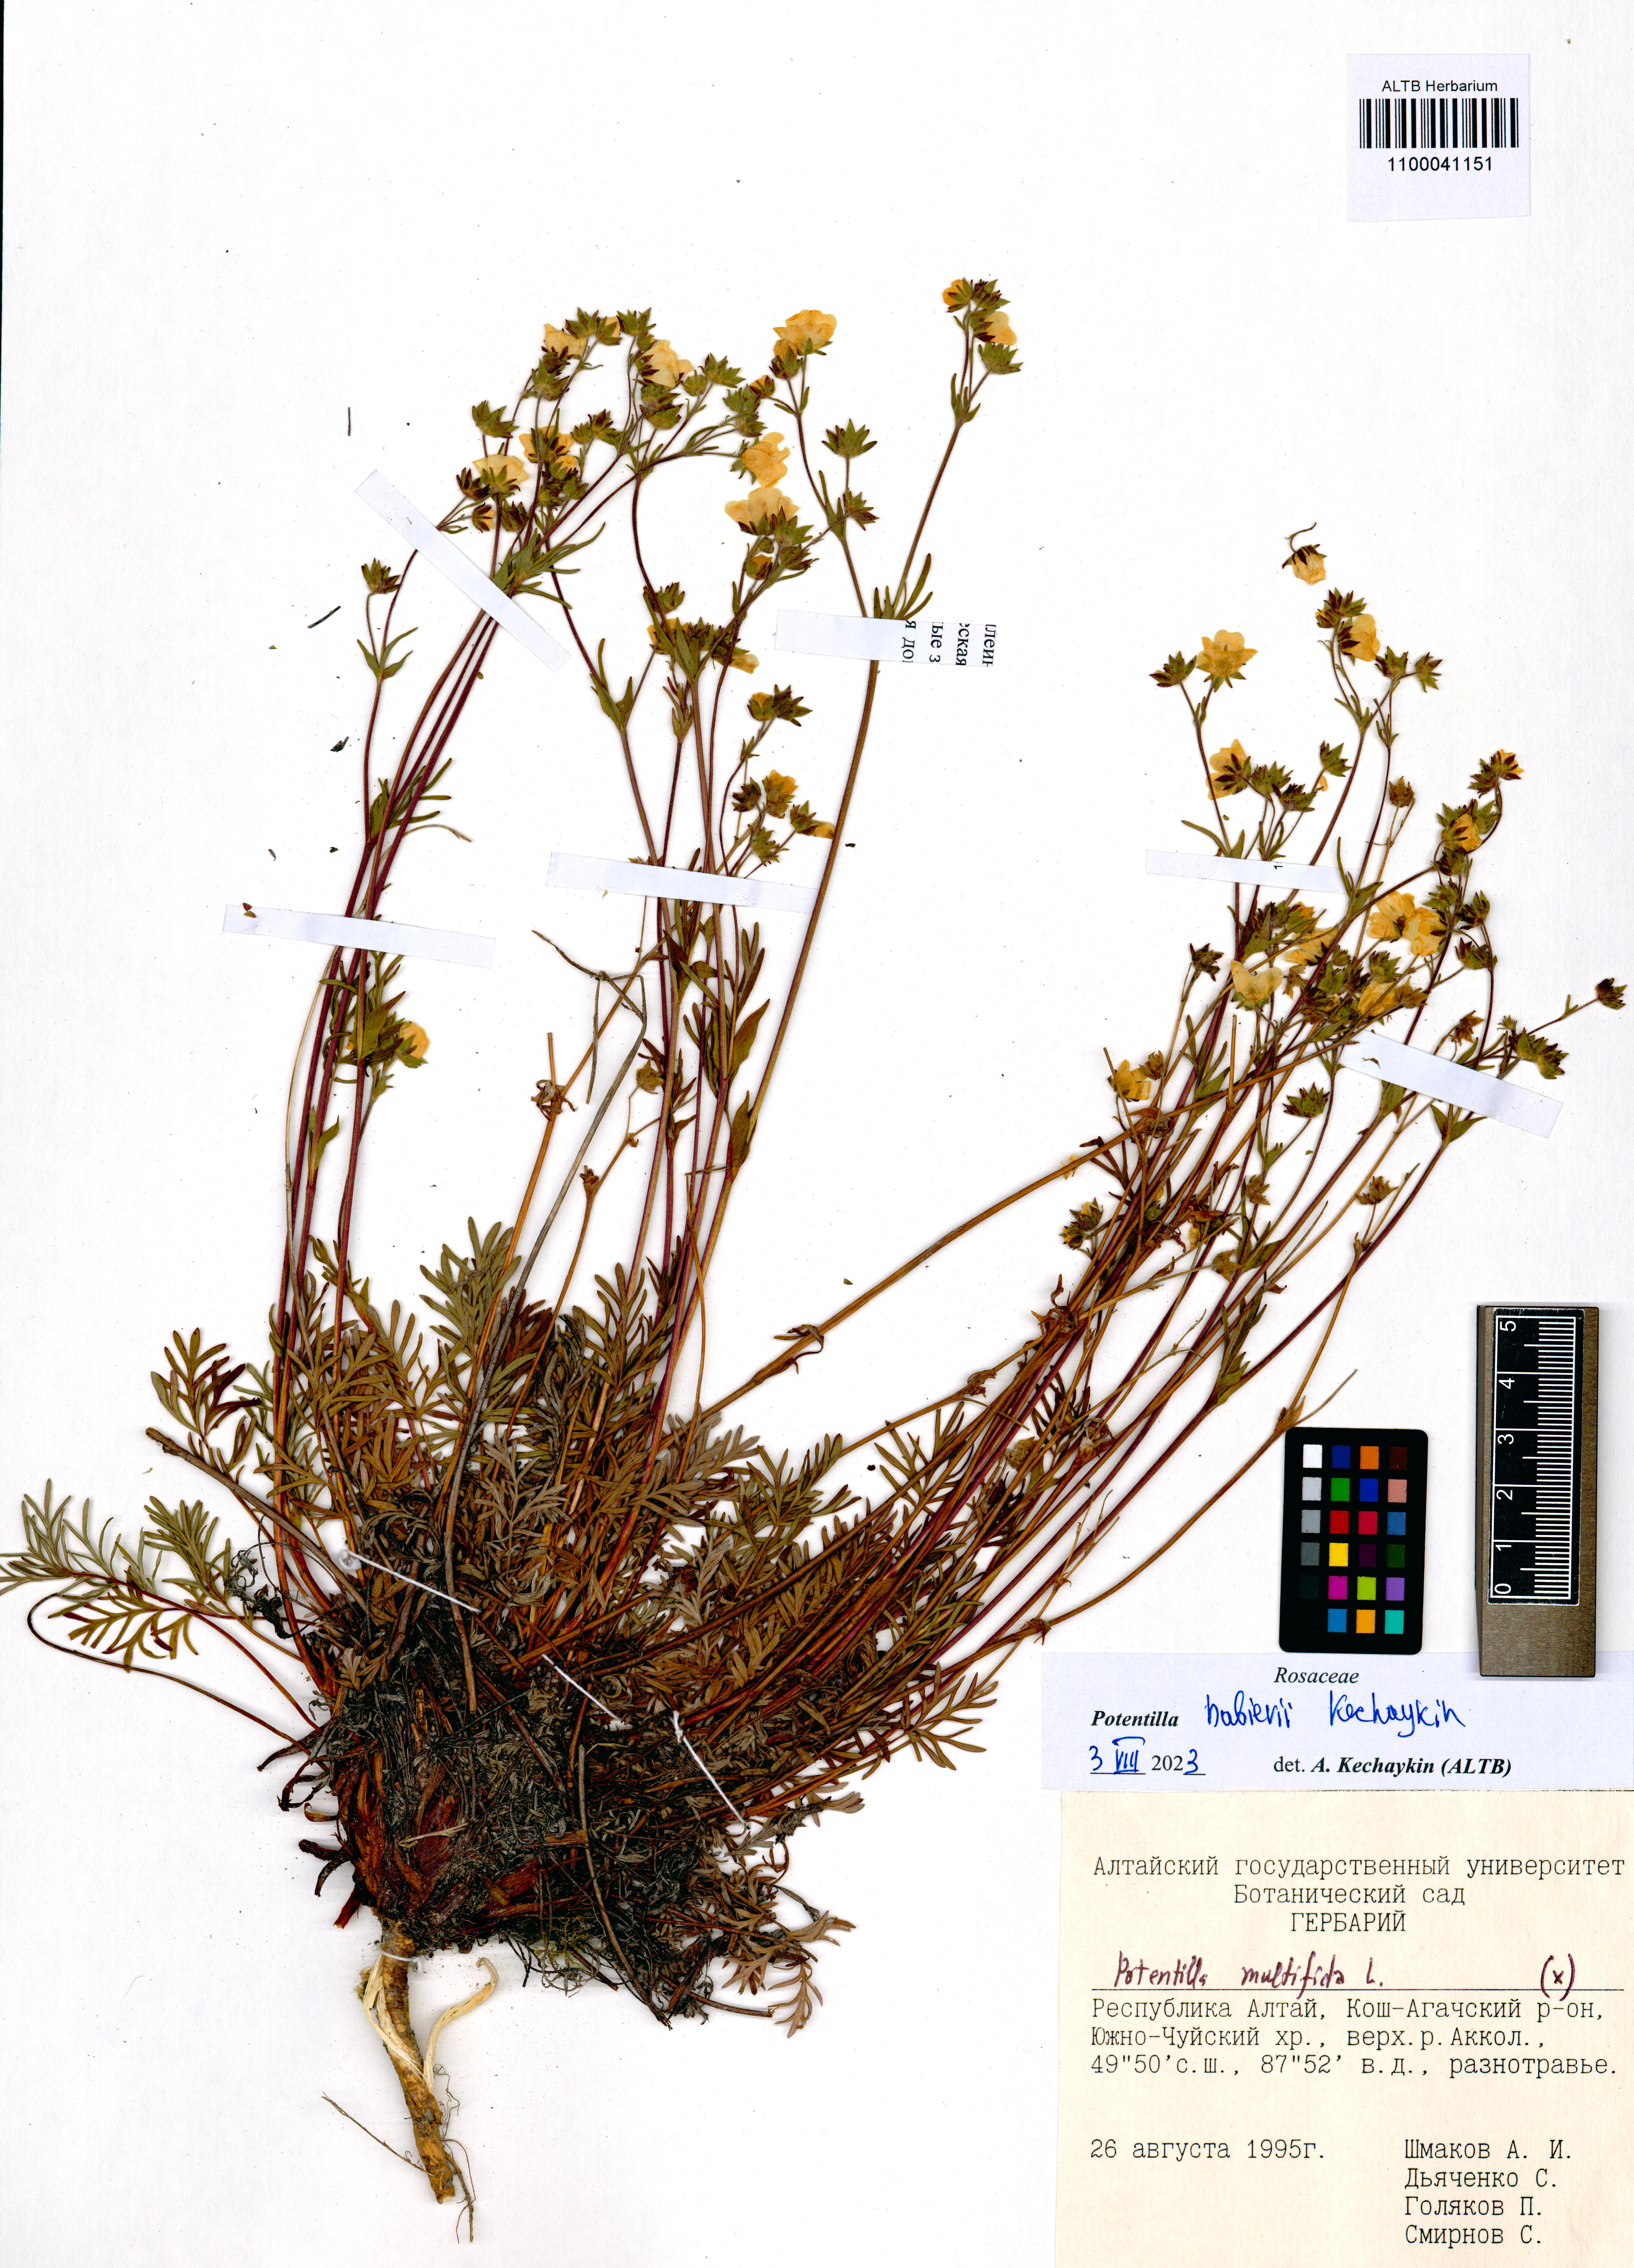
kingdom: Plantae
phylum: Tracheophyta
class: Magnoliopsida
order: Rosales
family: Rosaceae
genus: Potentilla
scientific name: Potentilla habievii
